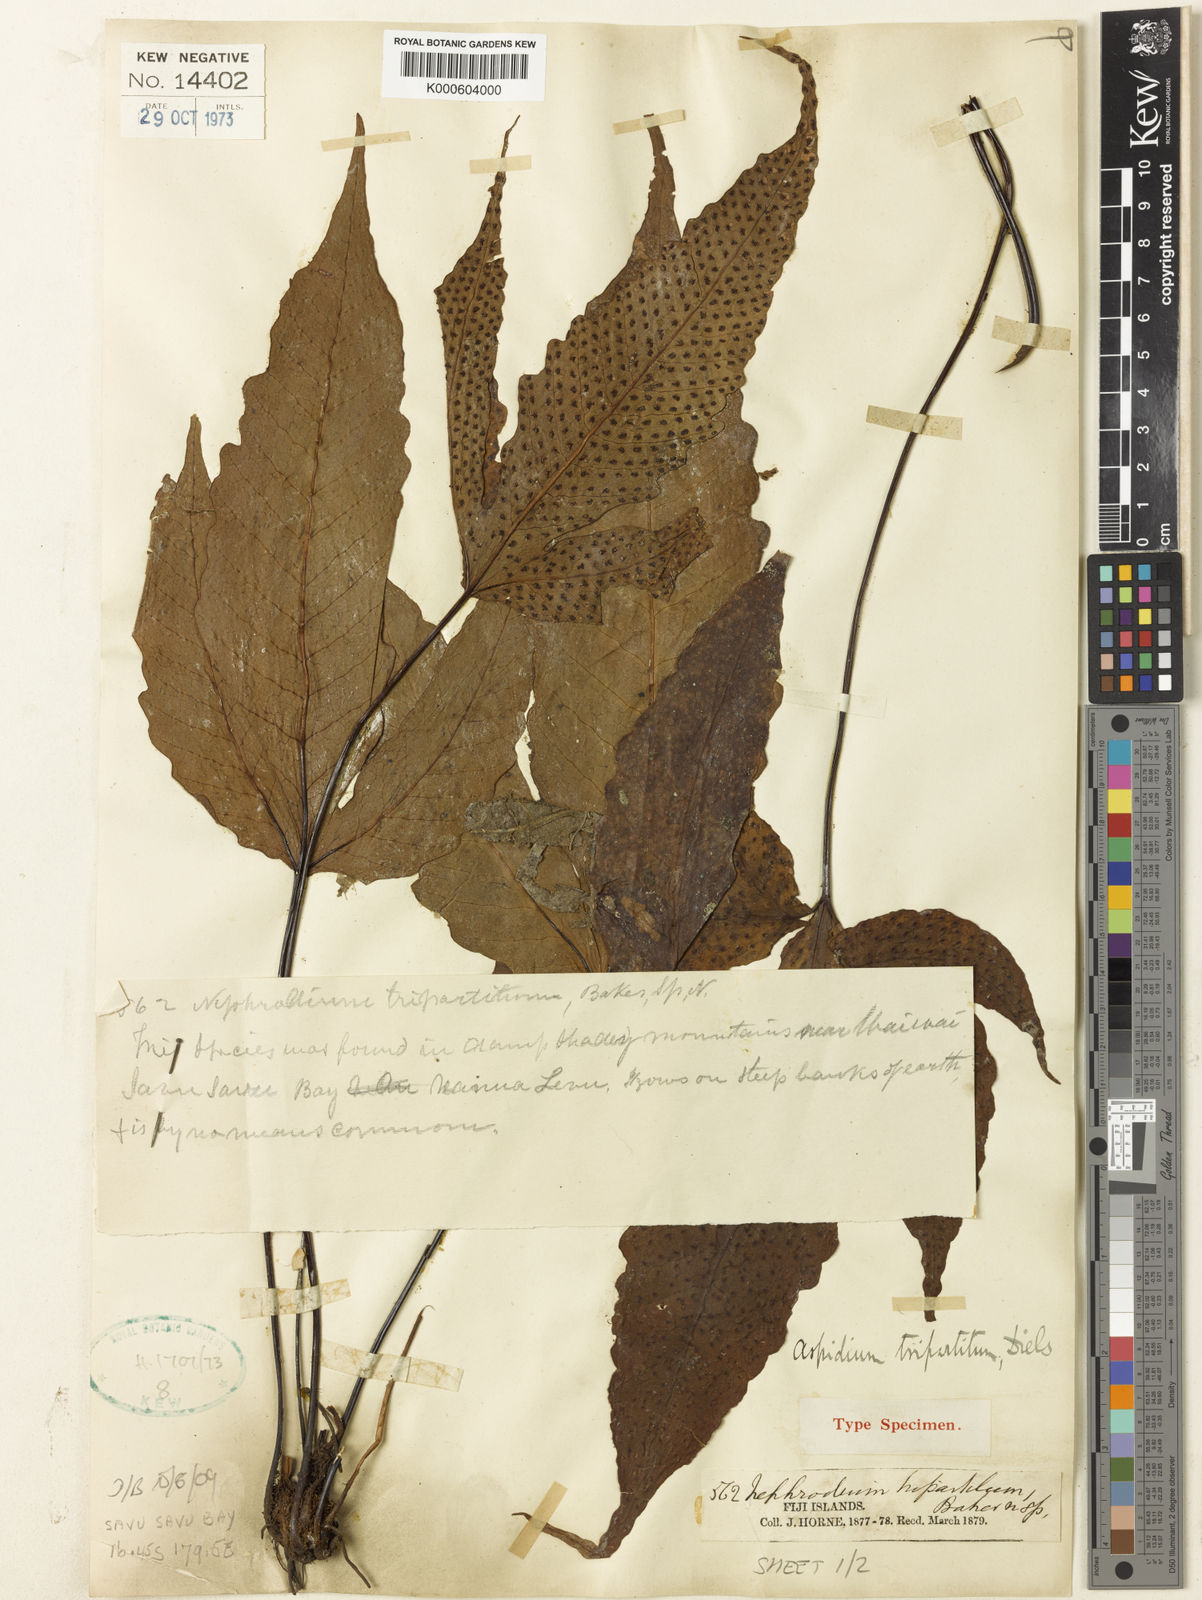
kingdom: Plantae
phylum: Tracheophyta
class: Polypodiopsida
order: Polypodiales
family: Tectariaceae
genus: Tectaria
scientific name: Tectaria tripartita
